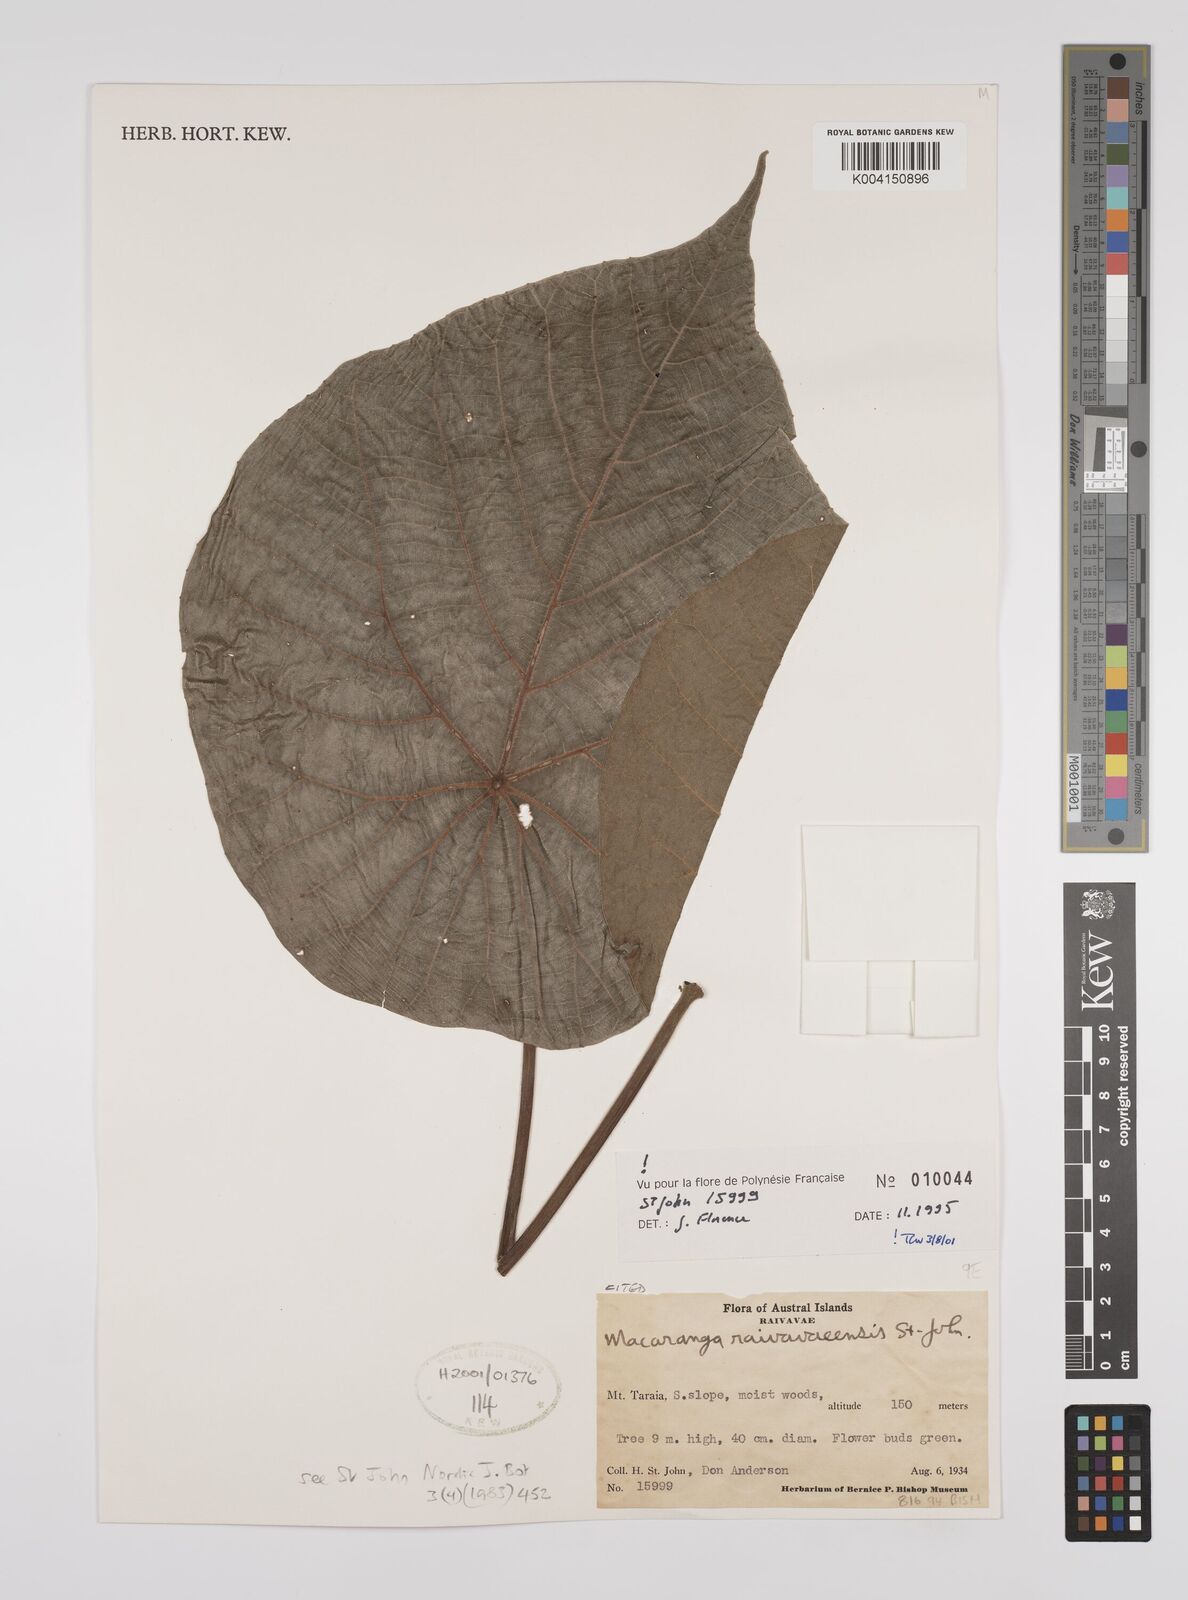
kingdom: Plantae
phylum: Tracheophyta
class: Magnoliopsida
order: Malpighiales
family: Euphorbiaceae
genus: Macaranga
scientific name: Macaranga raivavaeensis
